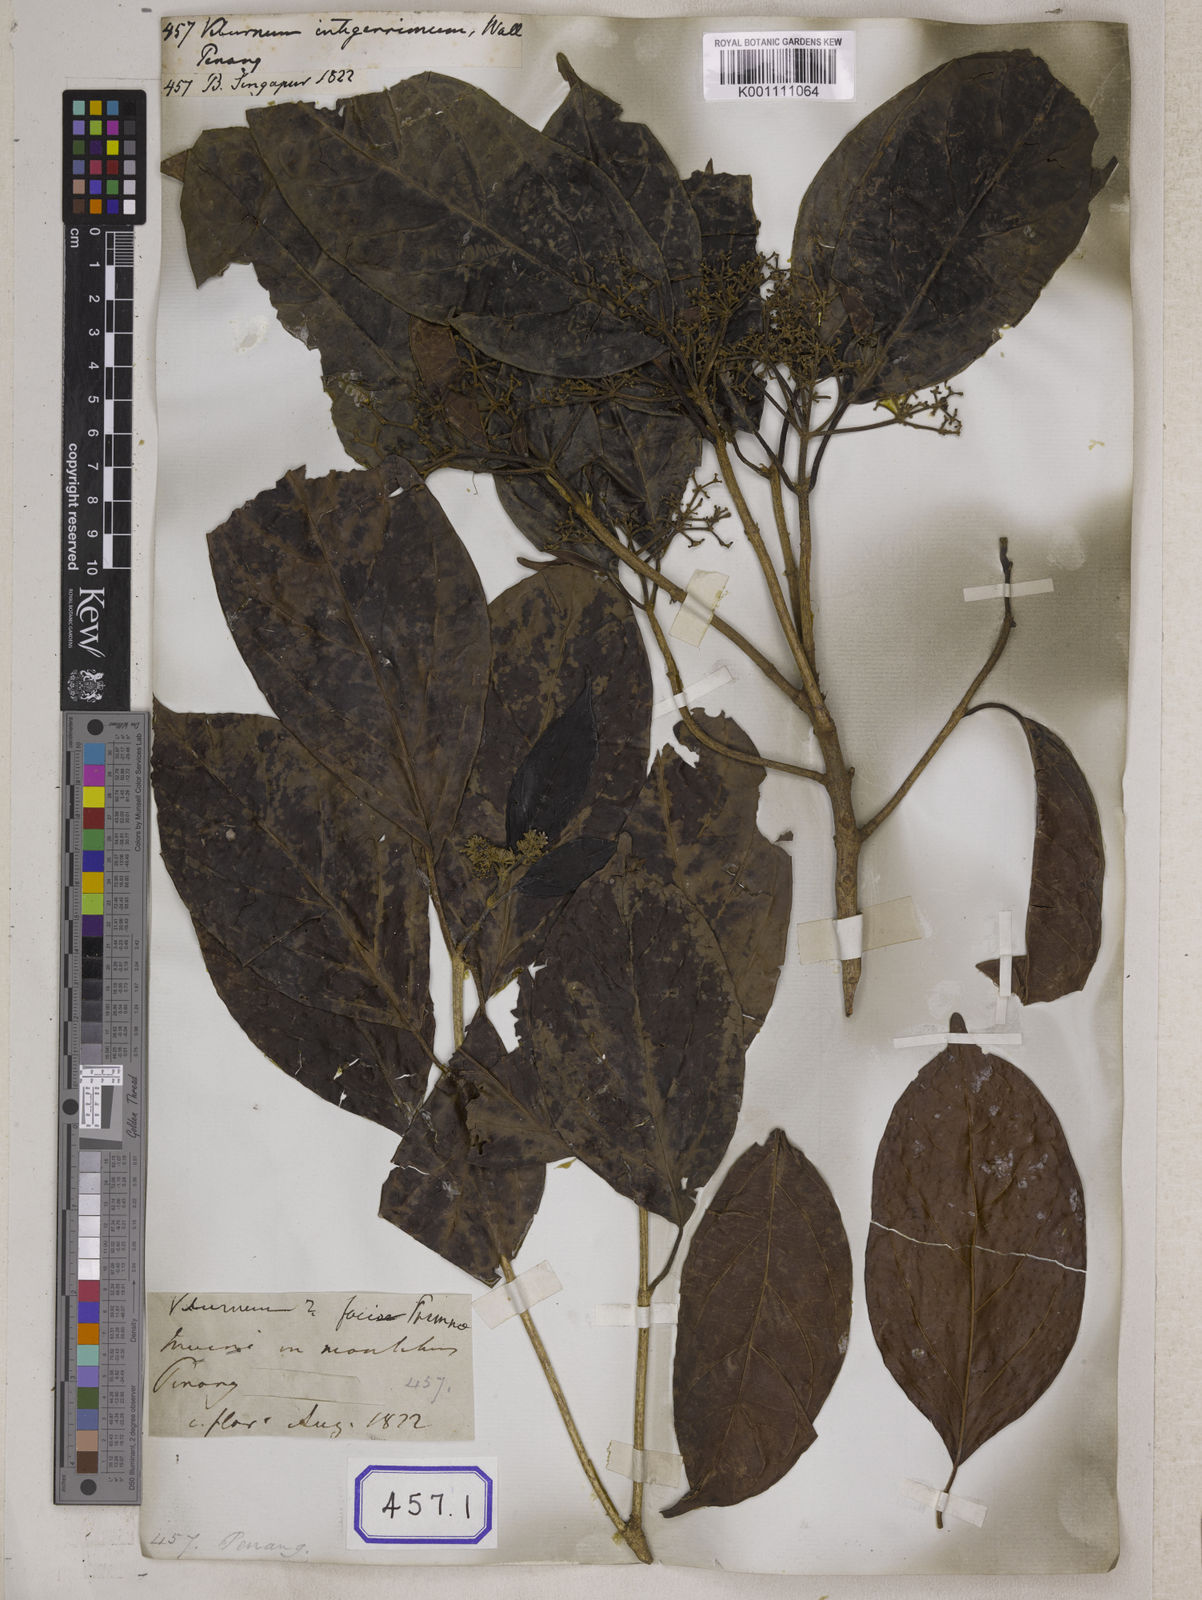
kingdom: Plantae
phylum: Tracheophyta
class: Magnoliopsida
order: Dipsacales
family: Viburnaceae
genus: Viburnum
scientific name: Viburnum
